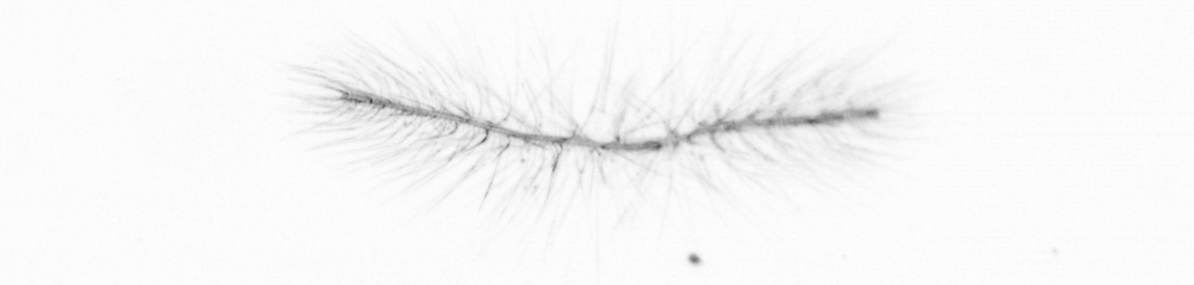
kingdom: Chromista
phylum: Ochrophyta
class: Bacillariophyceae
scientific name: Bacillariophyceae
